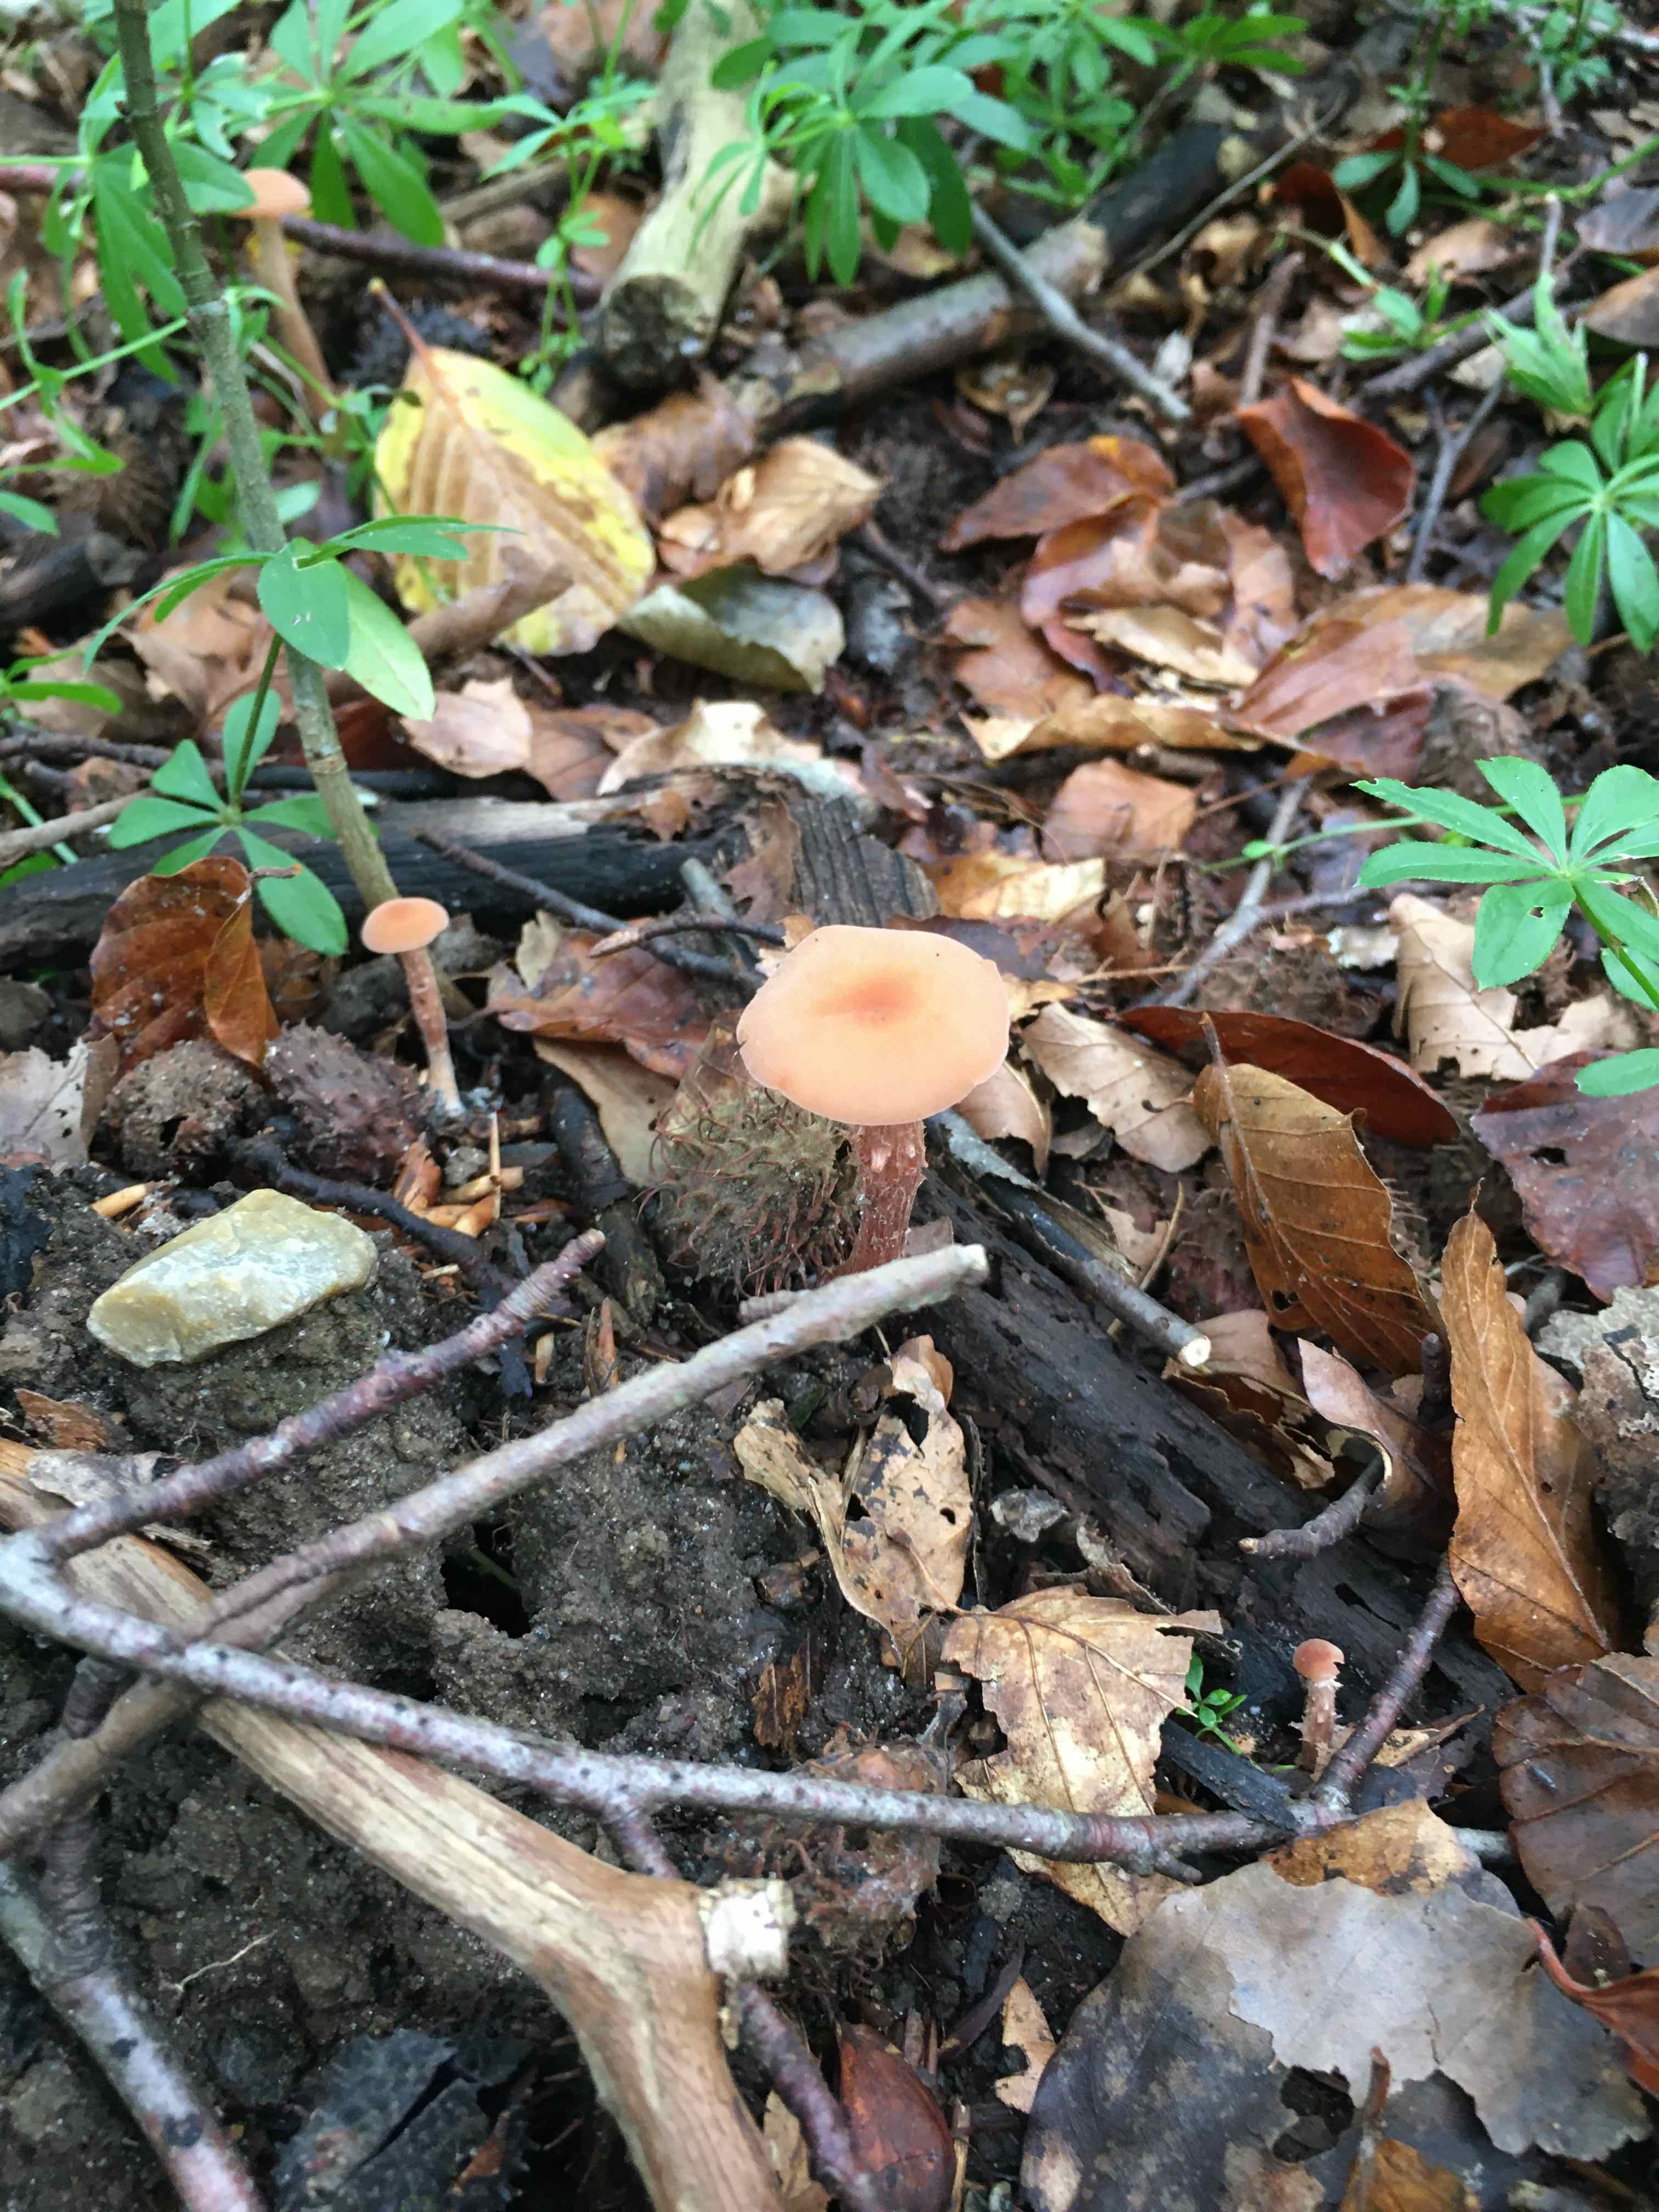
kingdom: Fungi
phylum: Basidiomycota
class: Agaricomycetes
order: Agaricales
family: Hydnangiaceae
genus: Laccaria
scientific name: Laccaria
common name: ametysthat
